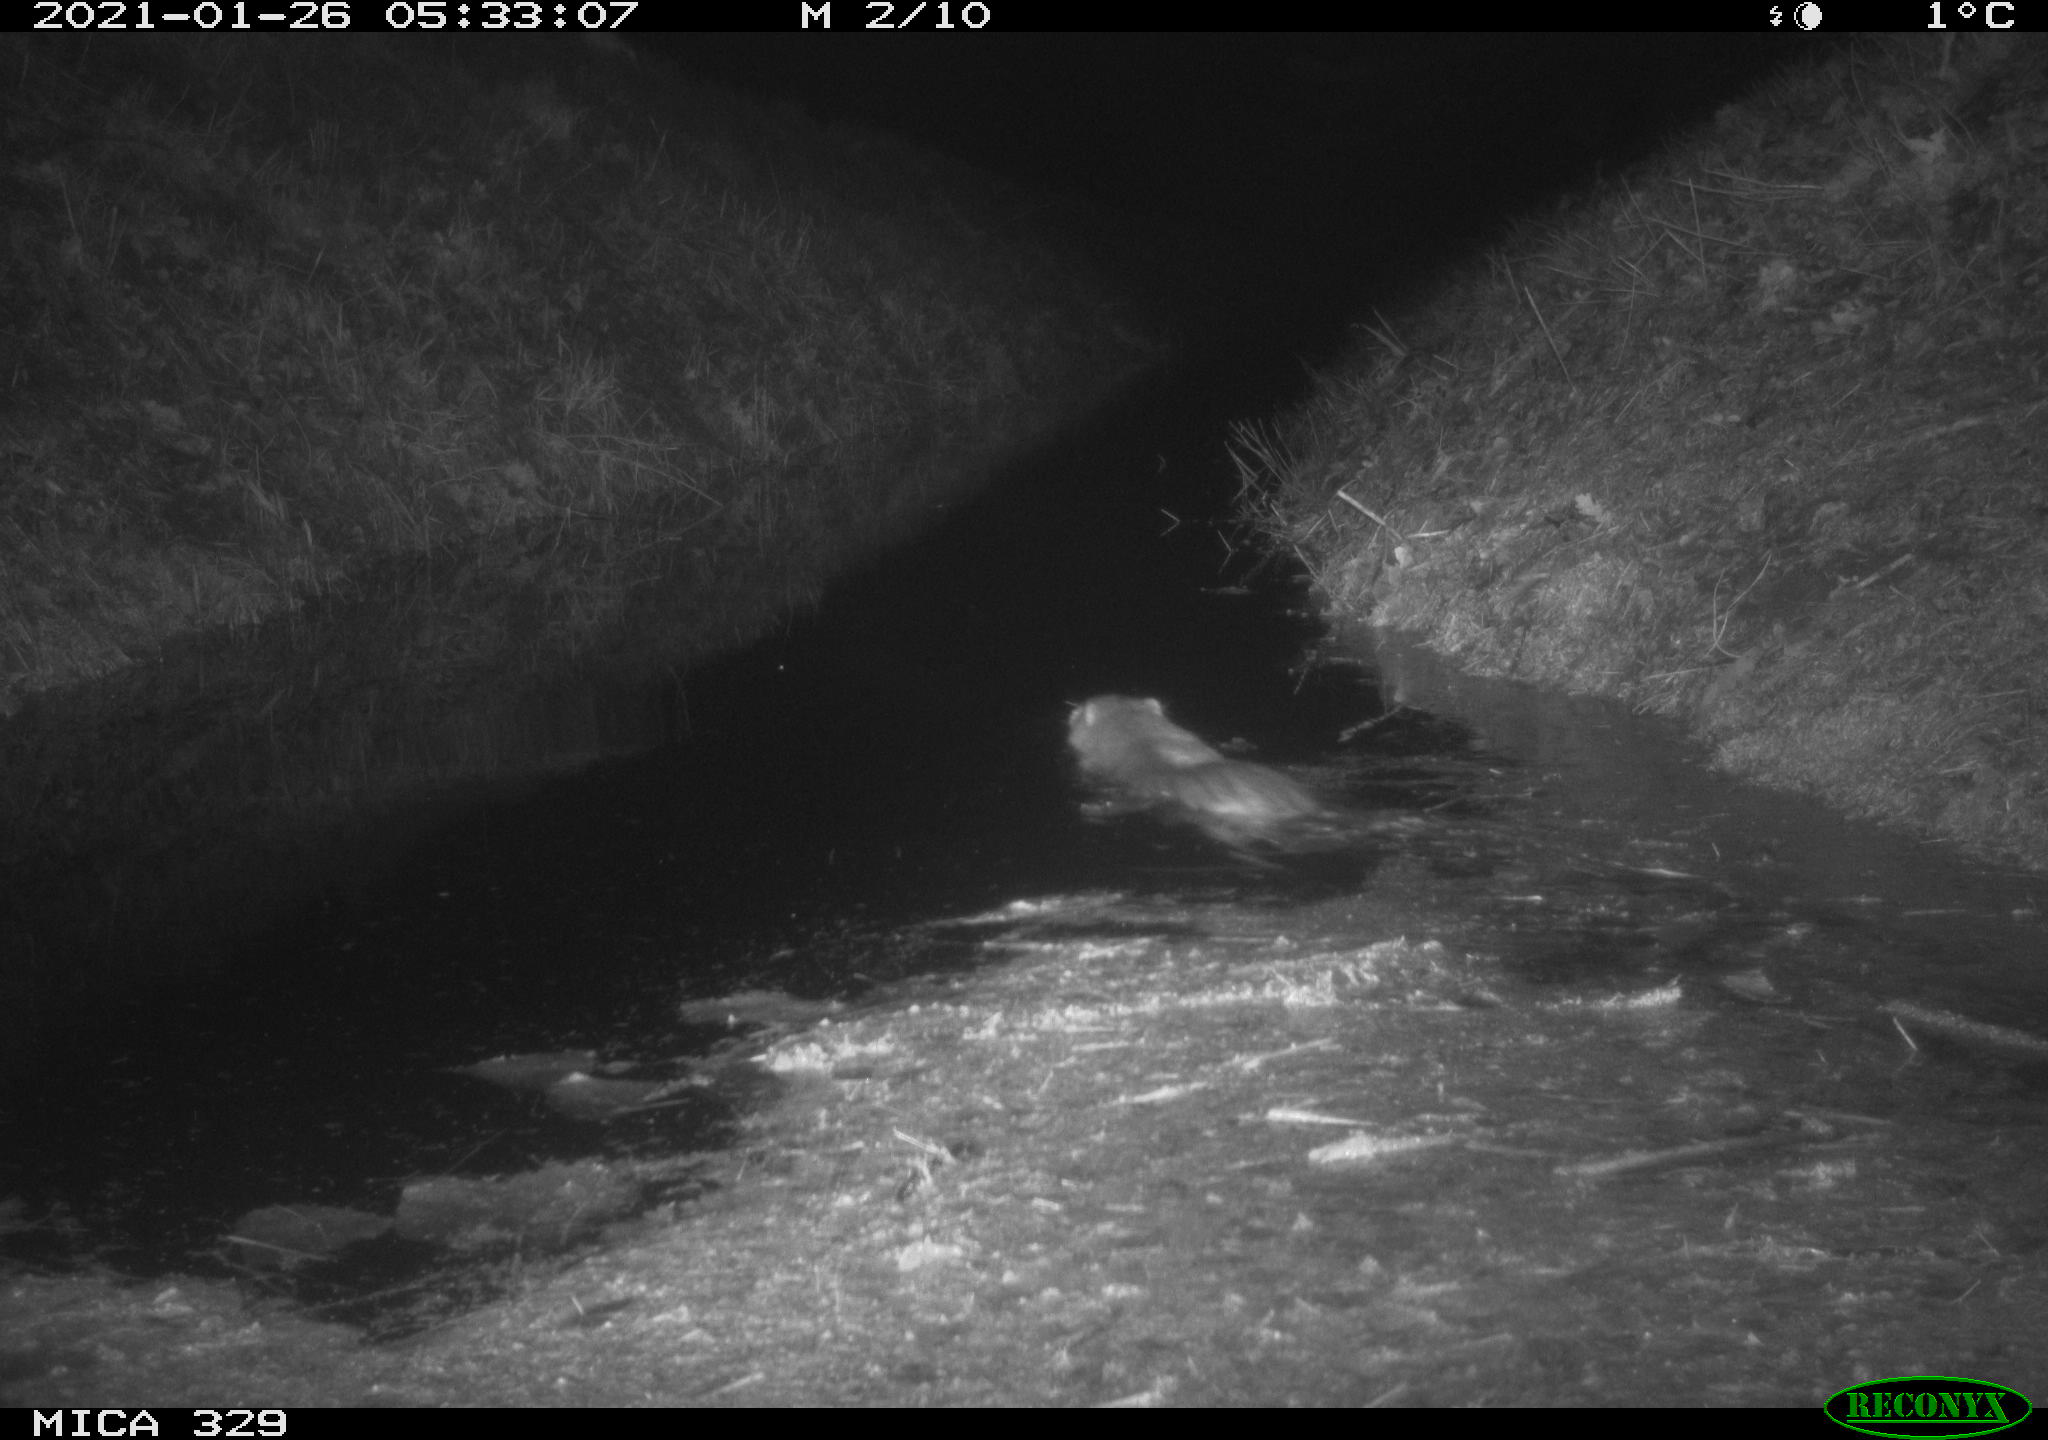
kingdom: Animalia
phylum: Chordata
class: Mammalia
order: Rodentia
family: Myocastoridae
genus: Myocastor
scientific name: Myocastor coypus
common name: Coypu
